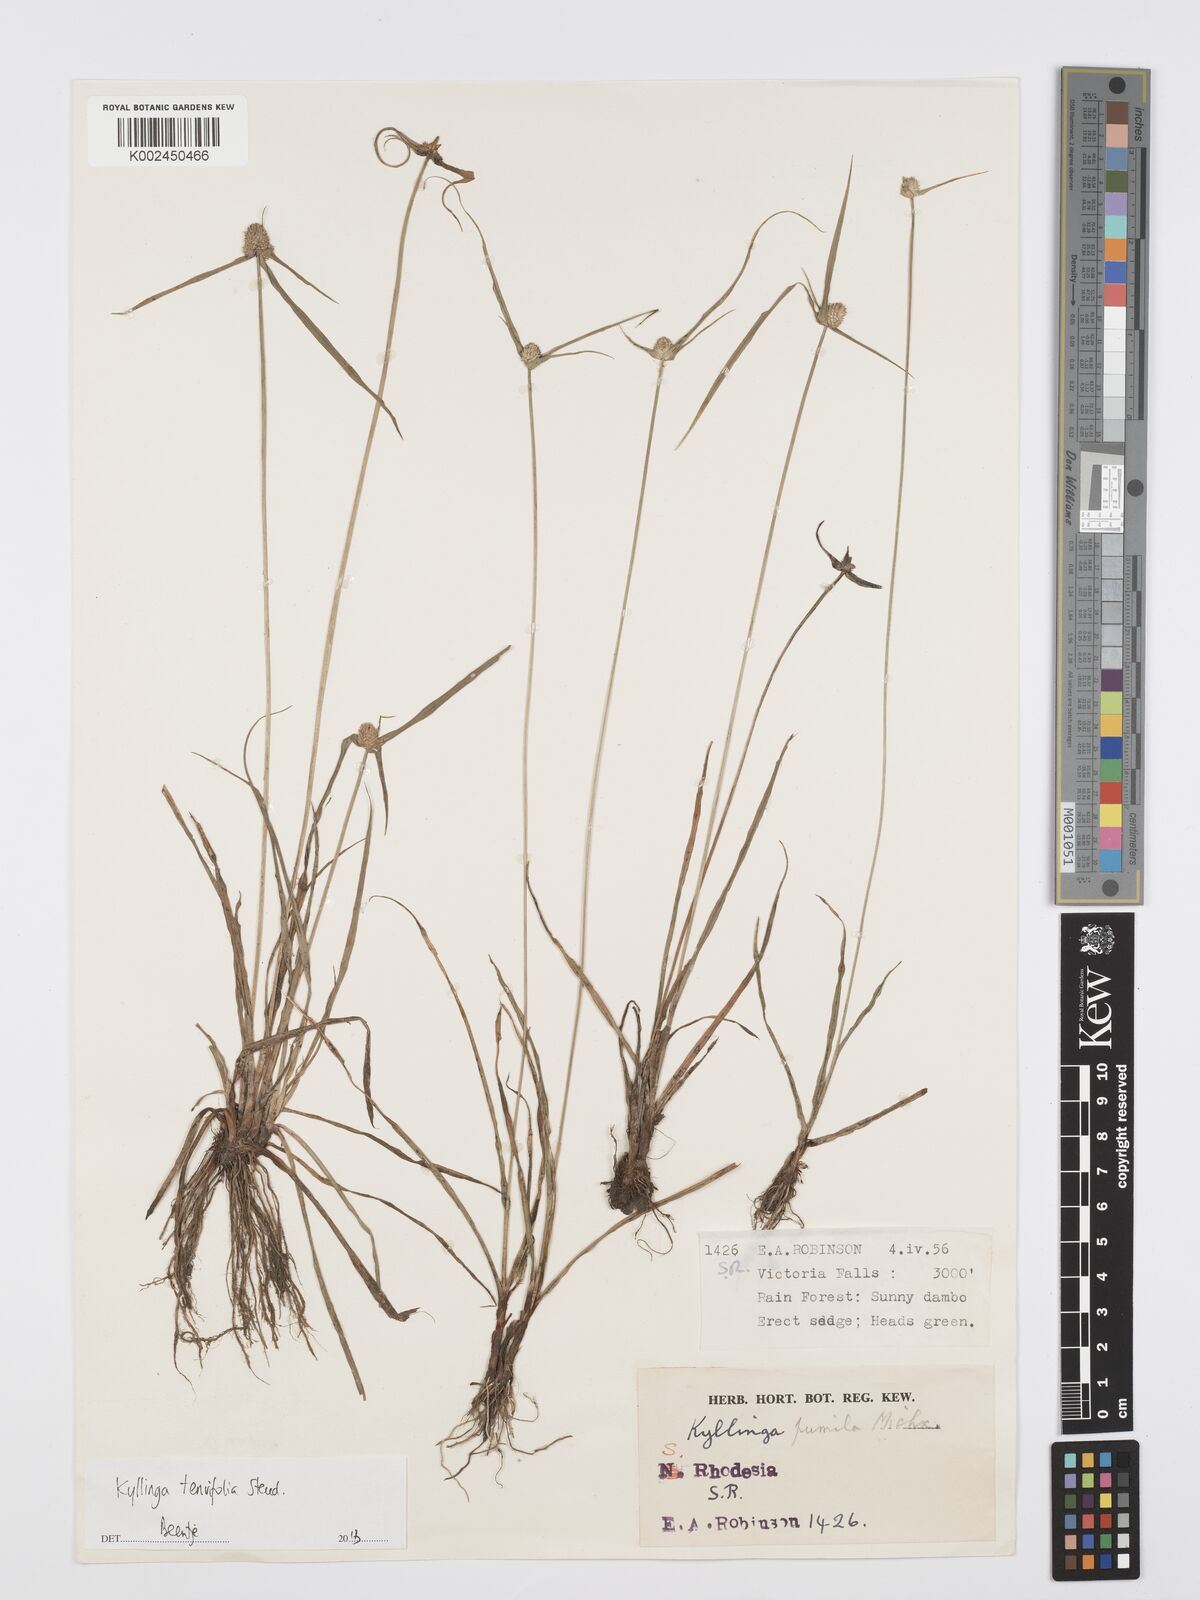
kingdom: Plantae
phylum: Tracheophyta
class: Liliopsida
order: Poales
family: Cyperaceae
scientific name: Cyperaceae
